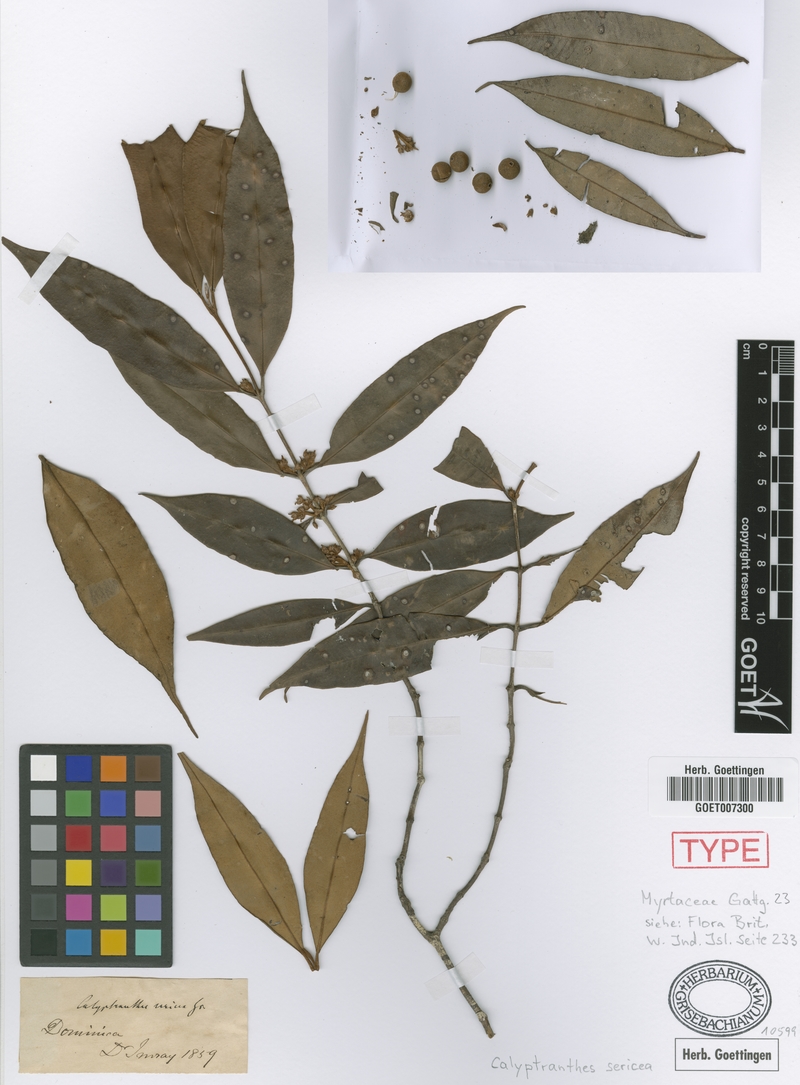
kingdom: Plantae
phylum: Tracheophyta
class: Magnoliopsida
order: Myrtales
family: Myrtaceae
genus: Myrcia
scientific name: Myrcia fasciculata
